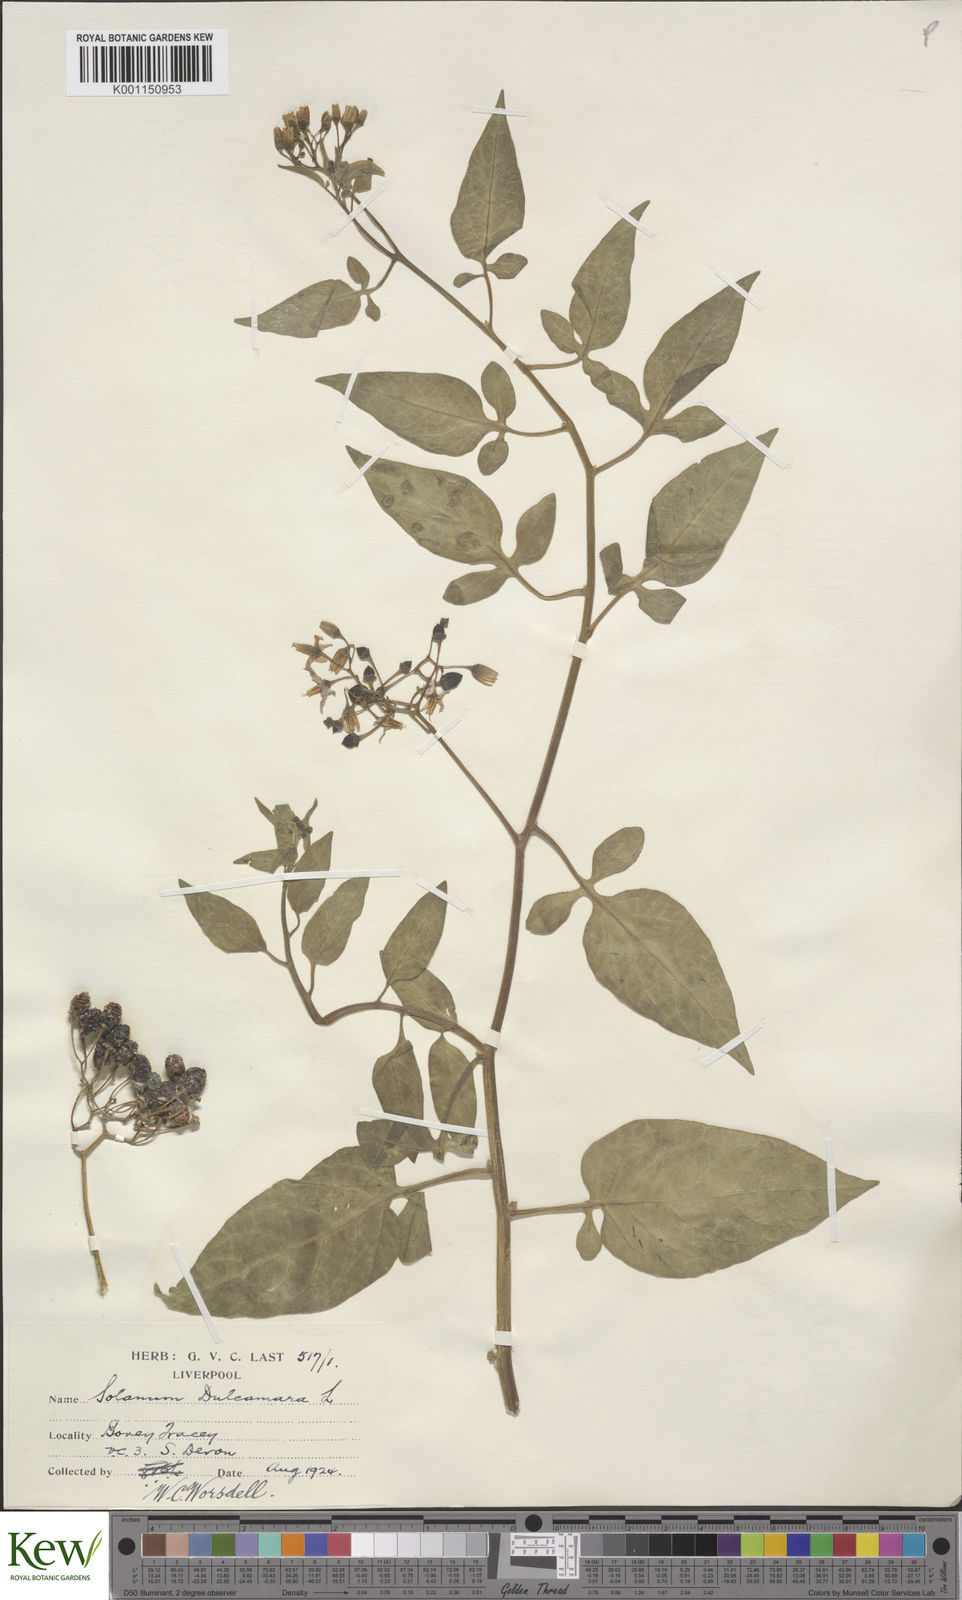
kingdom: Plantae
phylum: Tracheophyta
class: Magnoliopsida
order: Solanales
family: Solanaceae
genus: Solanum
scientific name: Solanum dulcamara
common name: Climbing nightshade
